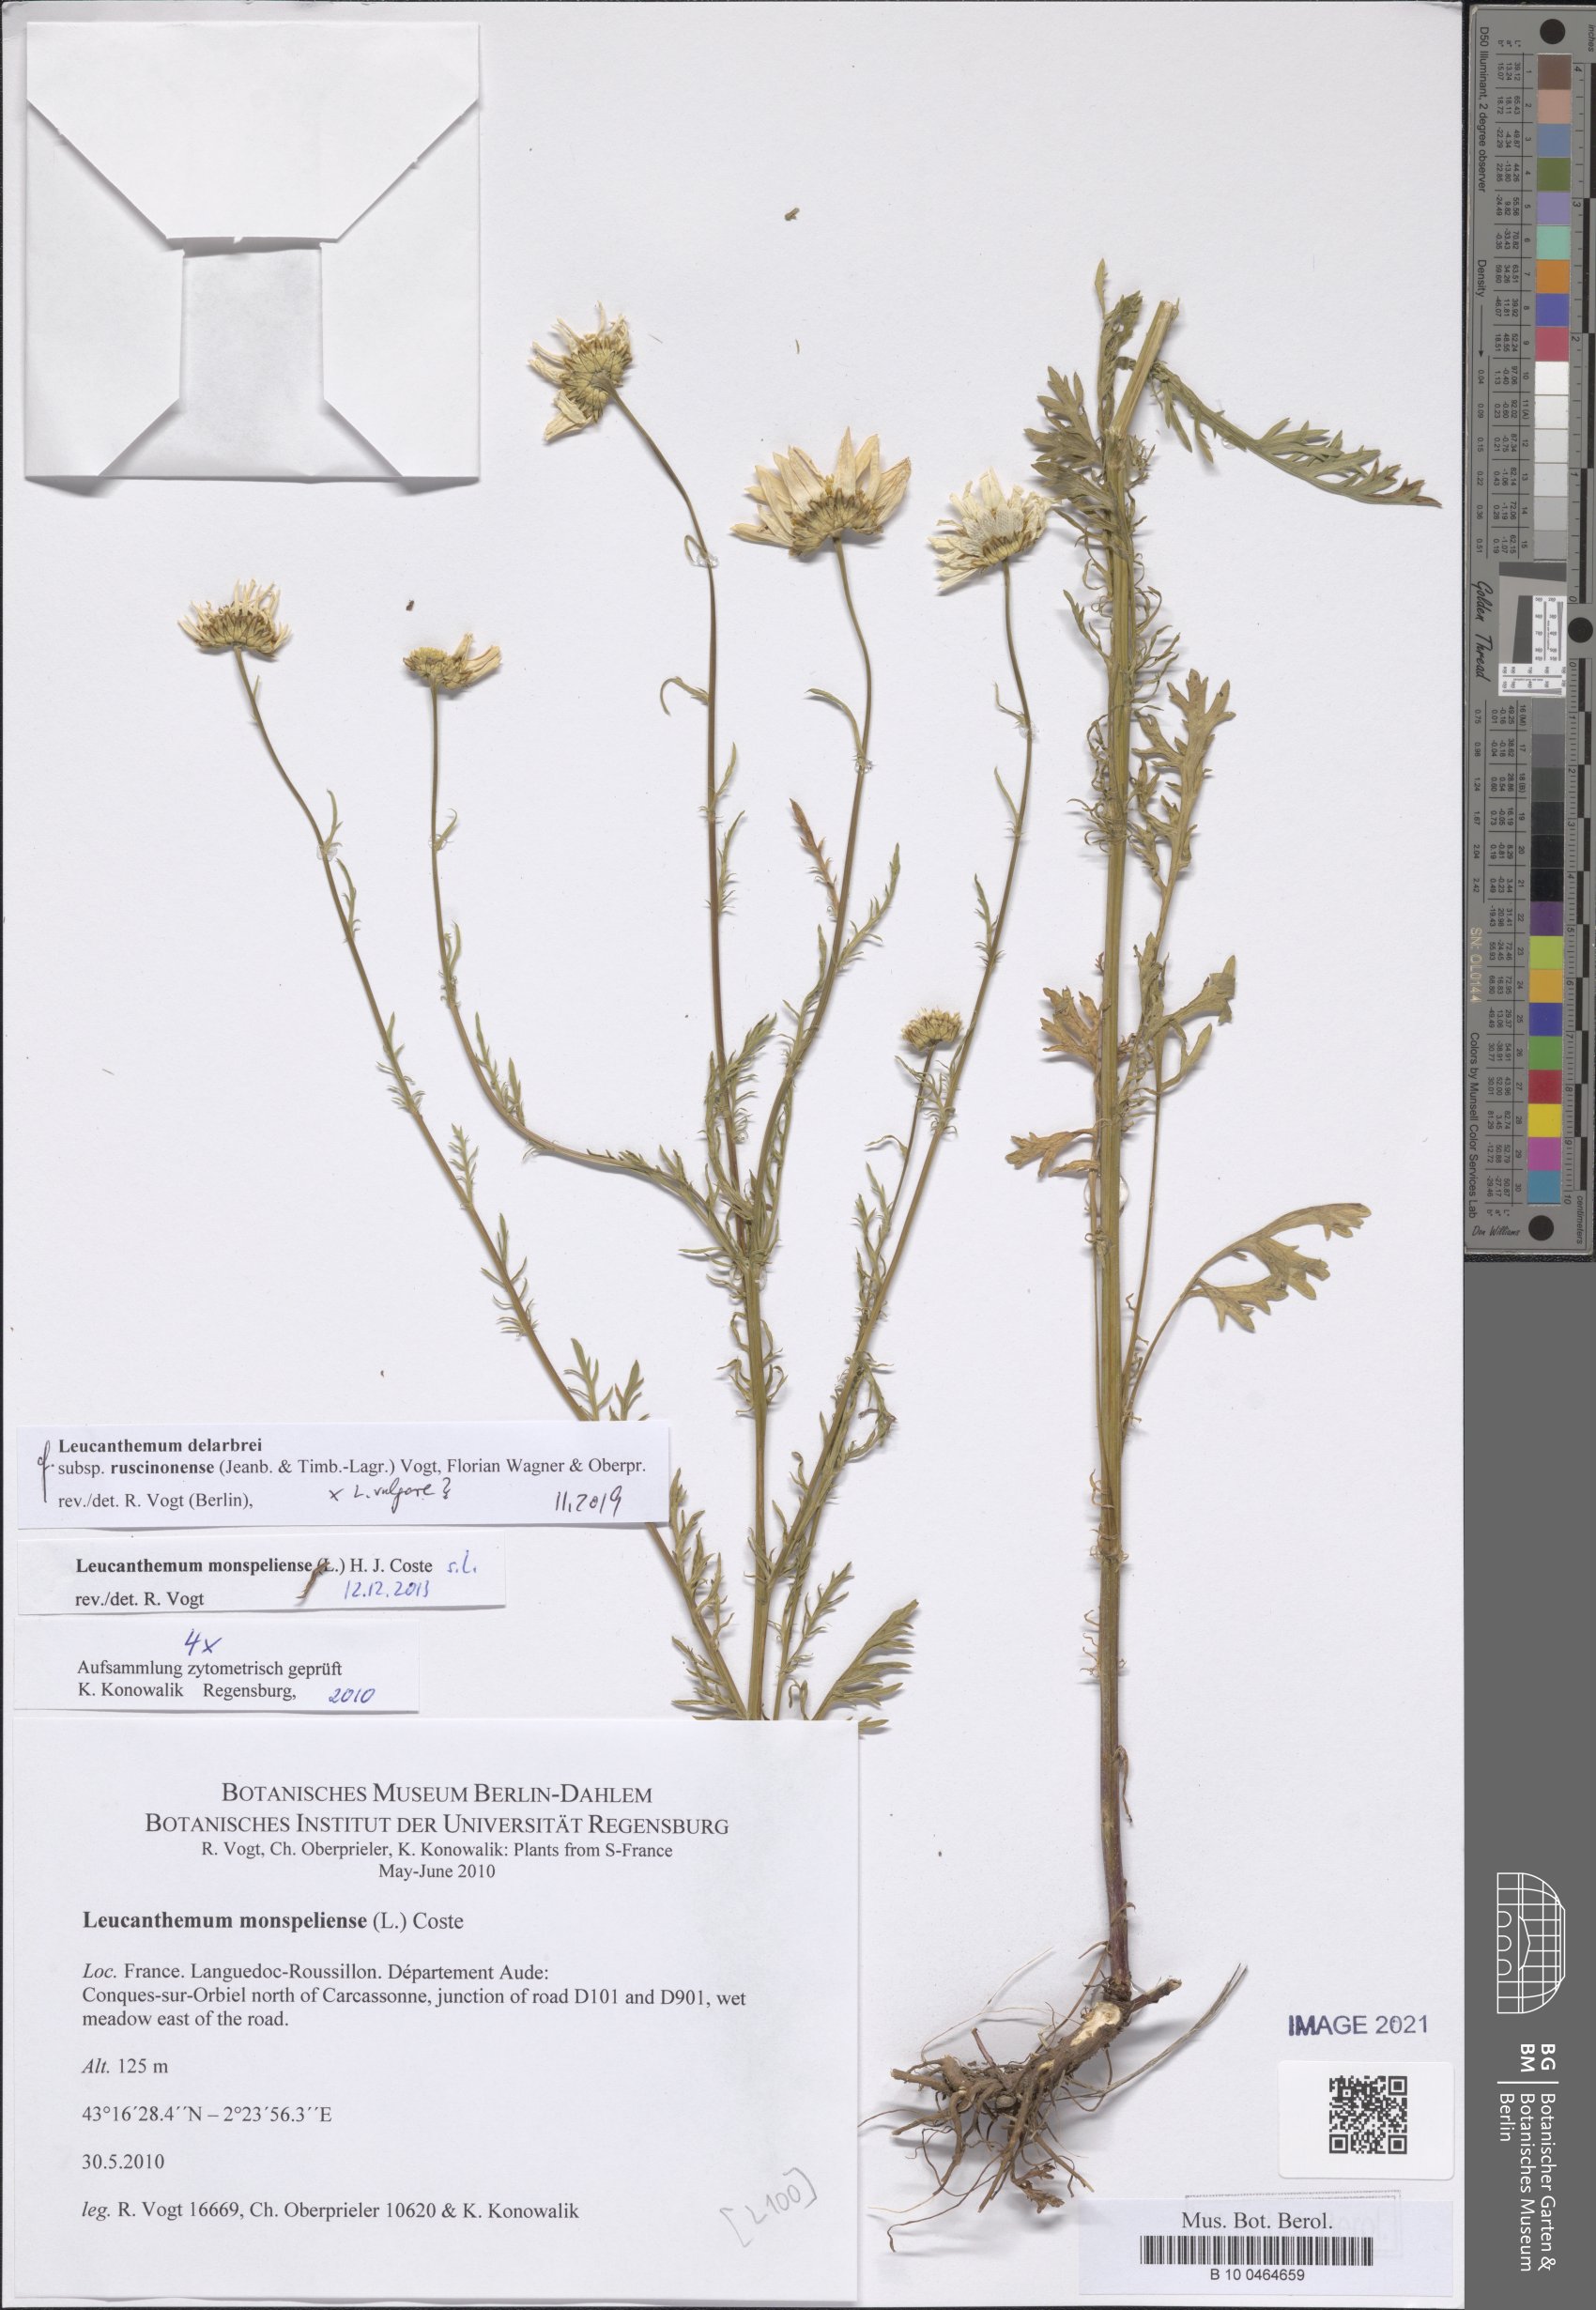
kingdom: Plantae
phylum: Tracheophyta
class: Magnoliopsida
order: Asterales
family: Asteraceae
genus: Leucanthemum
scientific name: Leucanthemum delarbrei
